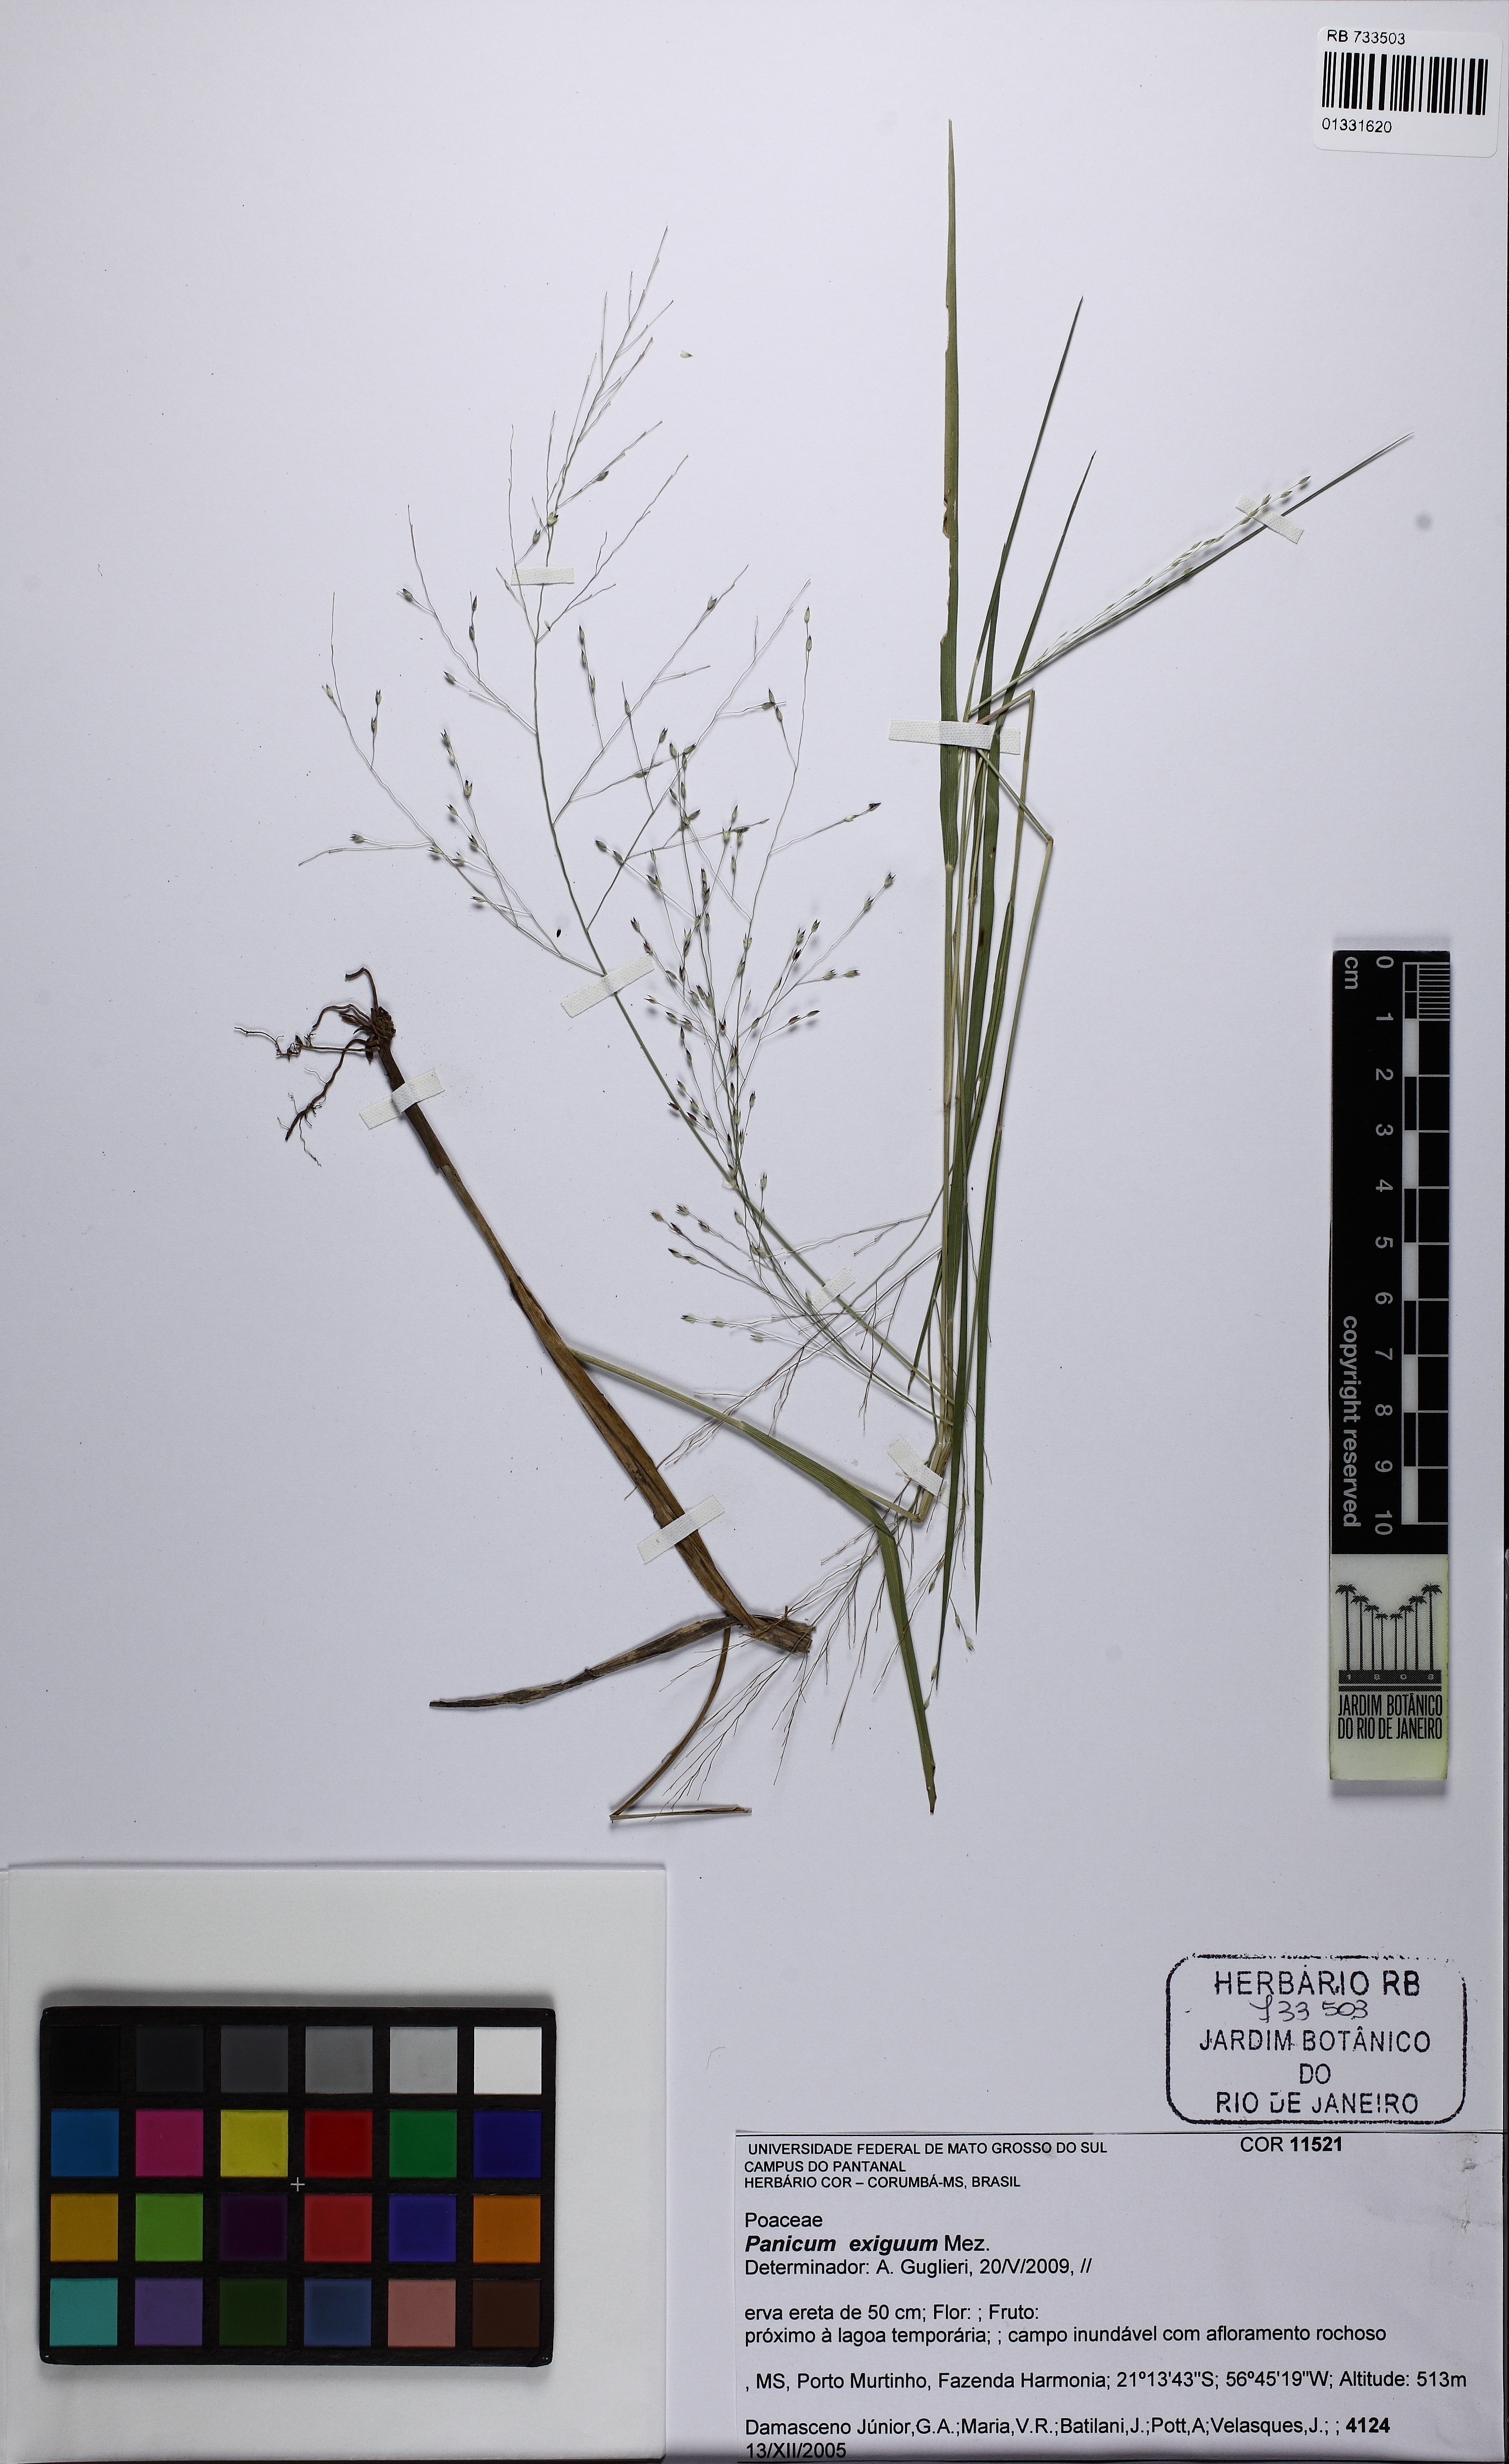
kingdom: Plantae
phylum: Tracheophyta
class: Liliopsida
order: Poales
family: Poaceae
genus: Panicum
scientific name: Panicum exiguum
